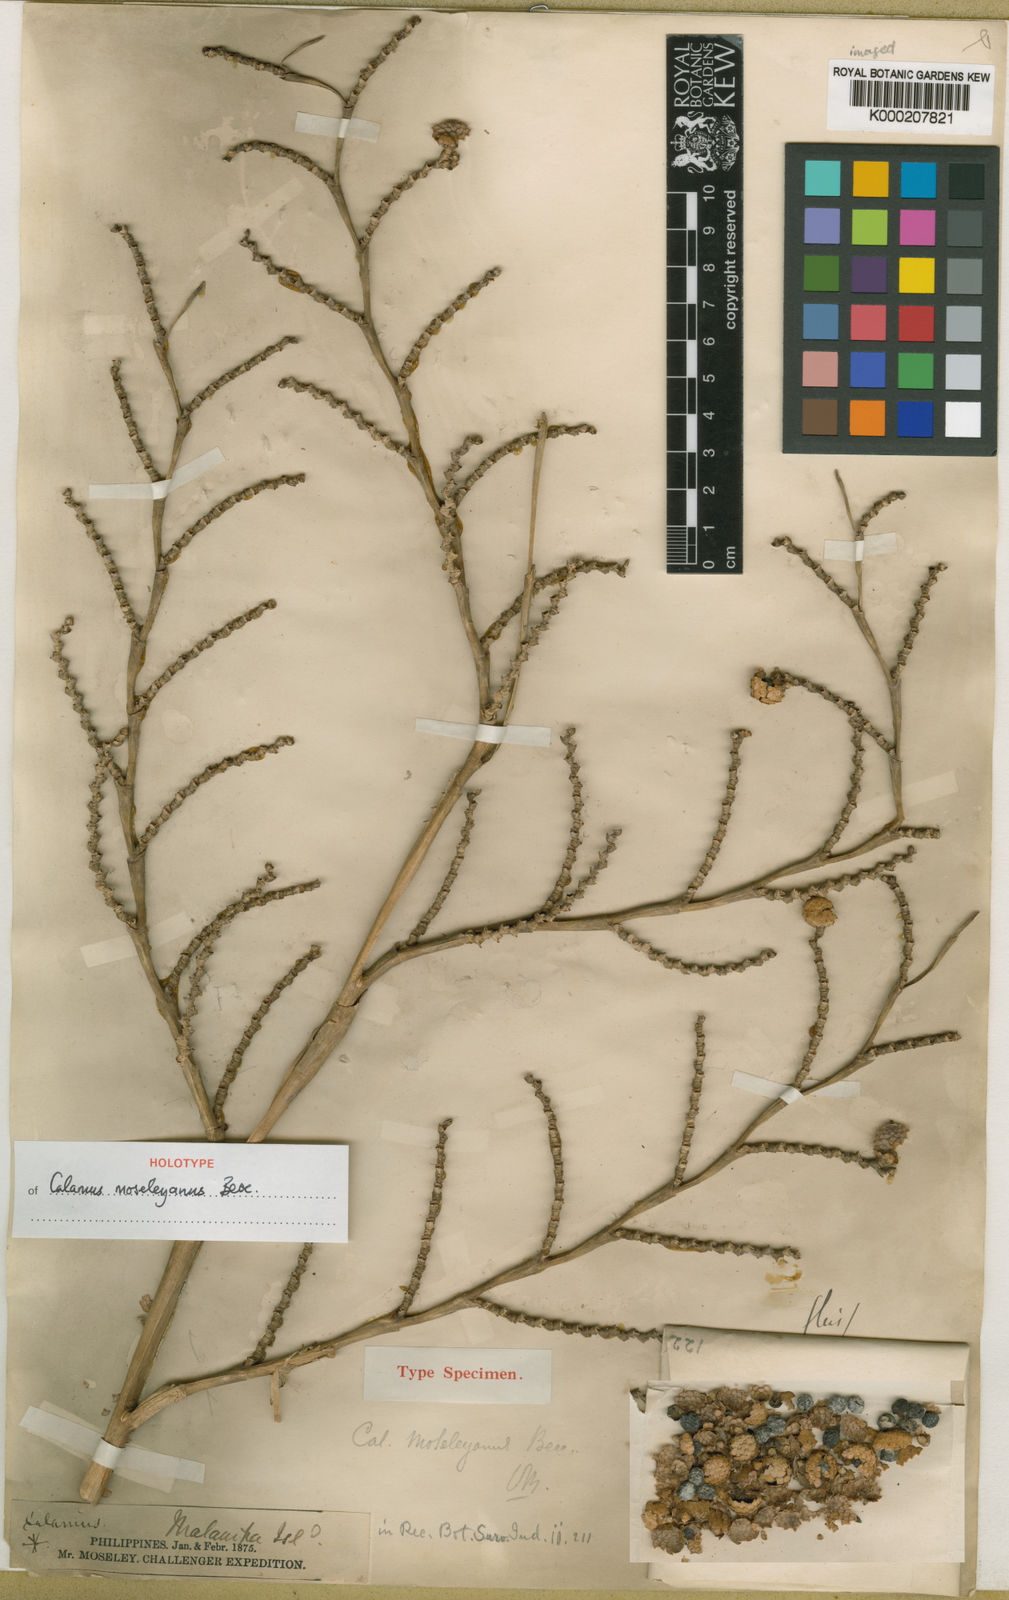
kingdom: Plantae
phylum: Tracheophyta
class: Liliopsida
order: Arecales
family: Arecaceae
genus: Calamus
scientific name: Calamus moseleyanus
